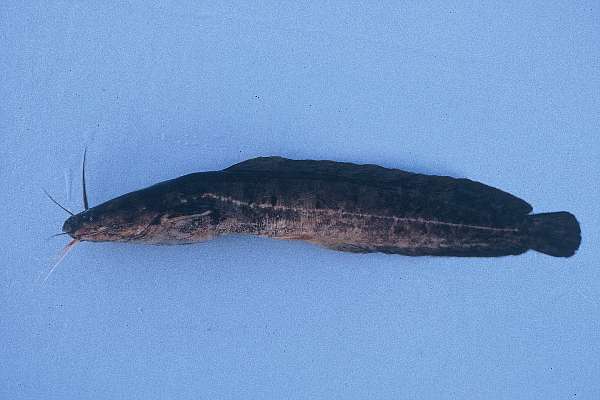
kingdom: Animalia
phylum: Chordata
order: Siluriformes
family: Clariidae
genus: Clarias
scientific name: Clarias stappersii
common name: Blotched catfish
